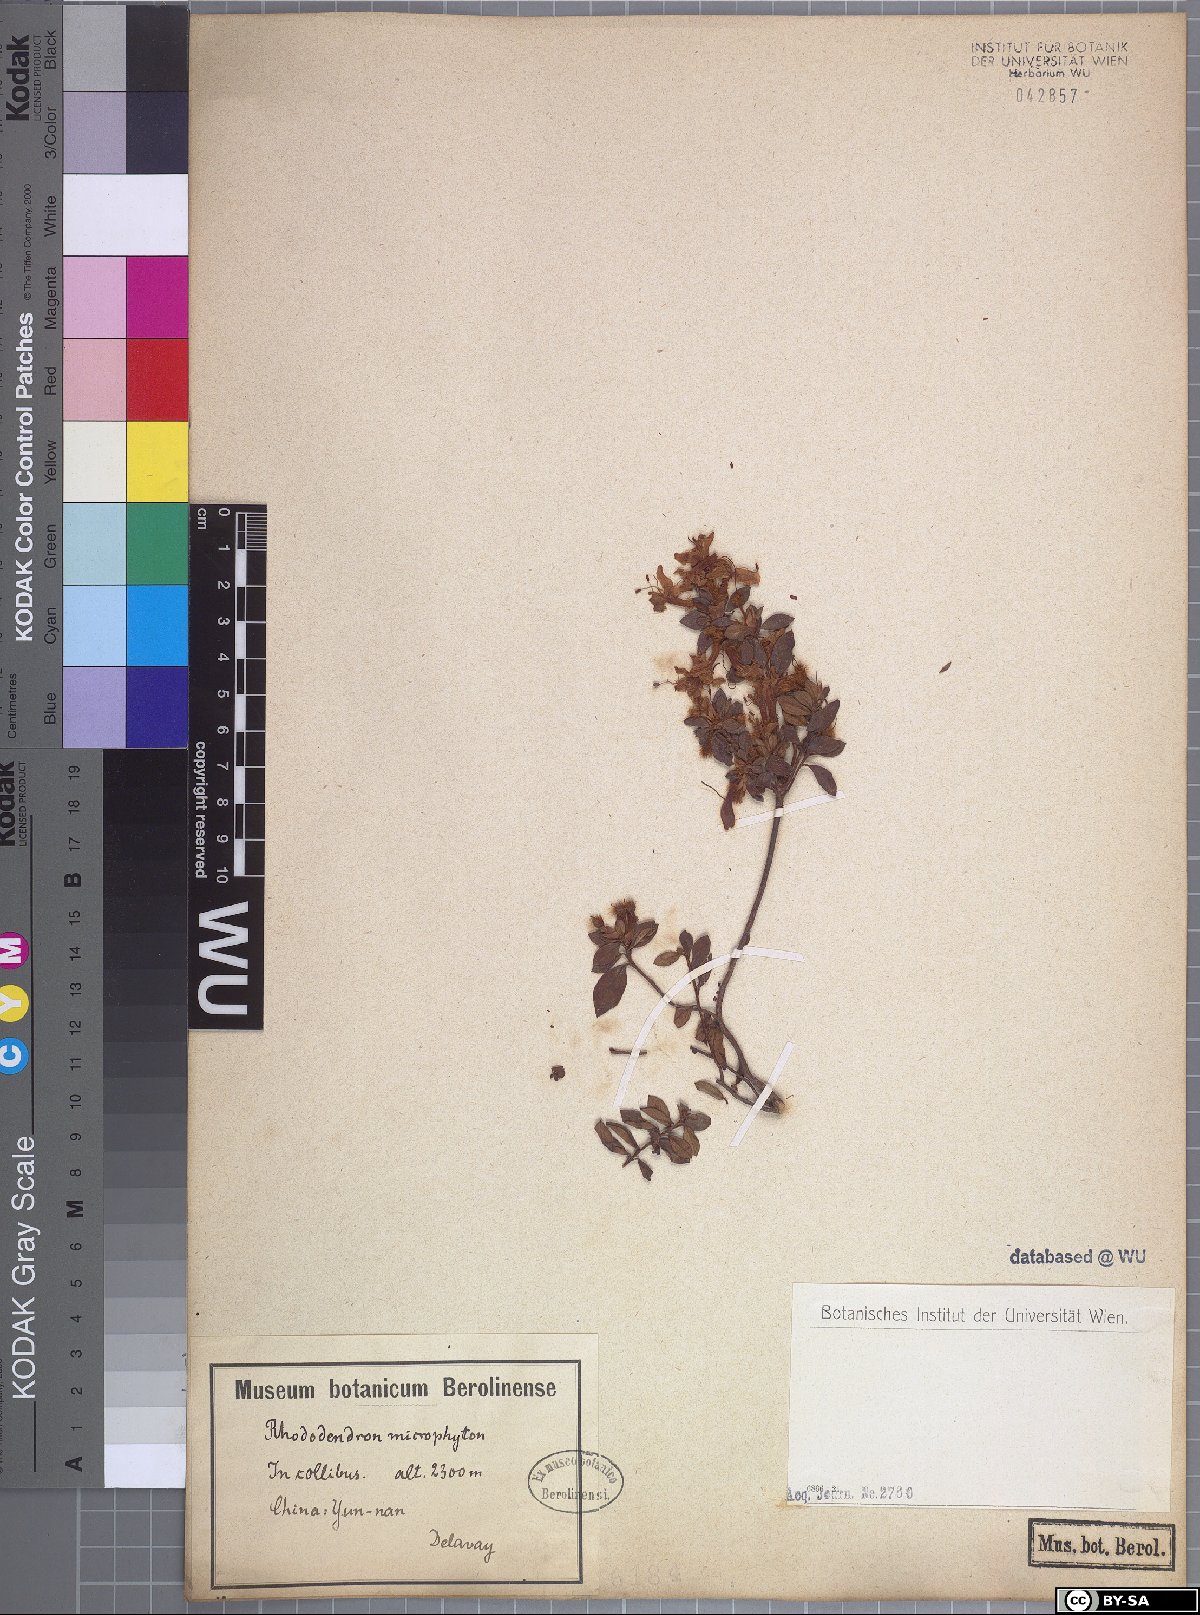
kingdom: Plantae
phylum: Tracheophyta
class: Magnoliopsida
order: Ericales
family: Ericaceae
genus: Rhododendron
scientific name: Rhododendron microphyton
